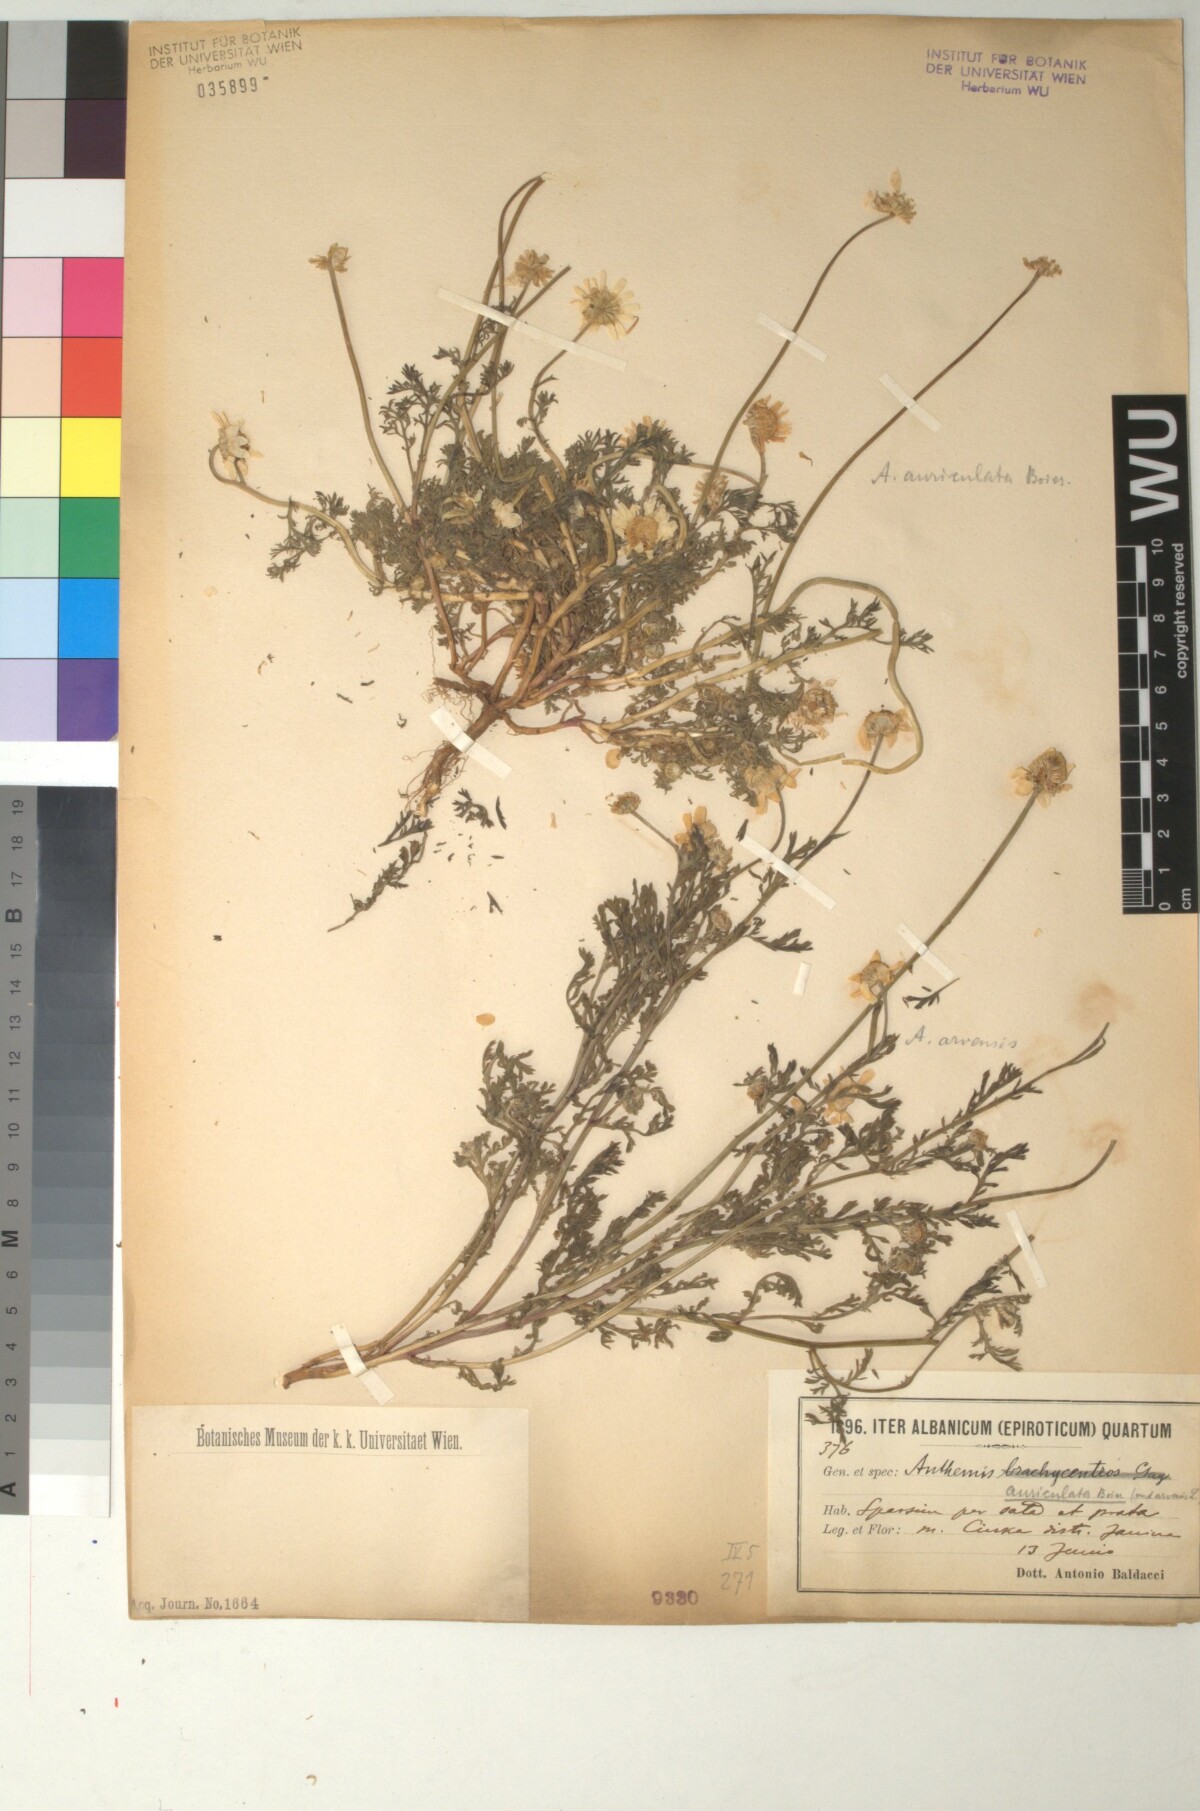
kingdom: Plantae
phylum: Tracheophyta
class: Magnoliopsida
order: Asterales
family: Asteraceae
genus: Anthemis
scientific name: Anthemis auriculata
